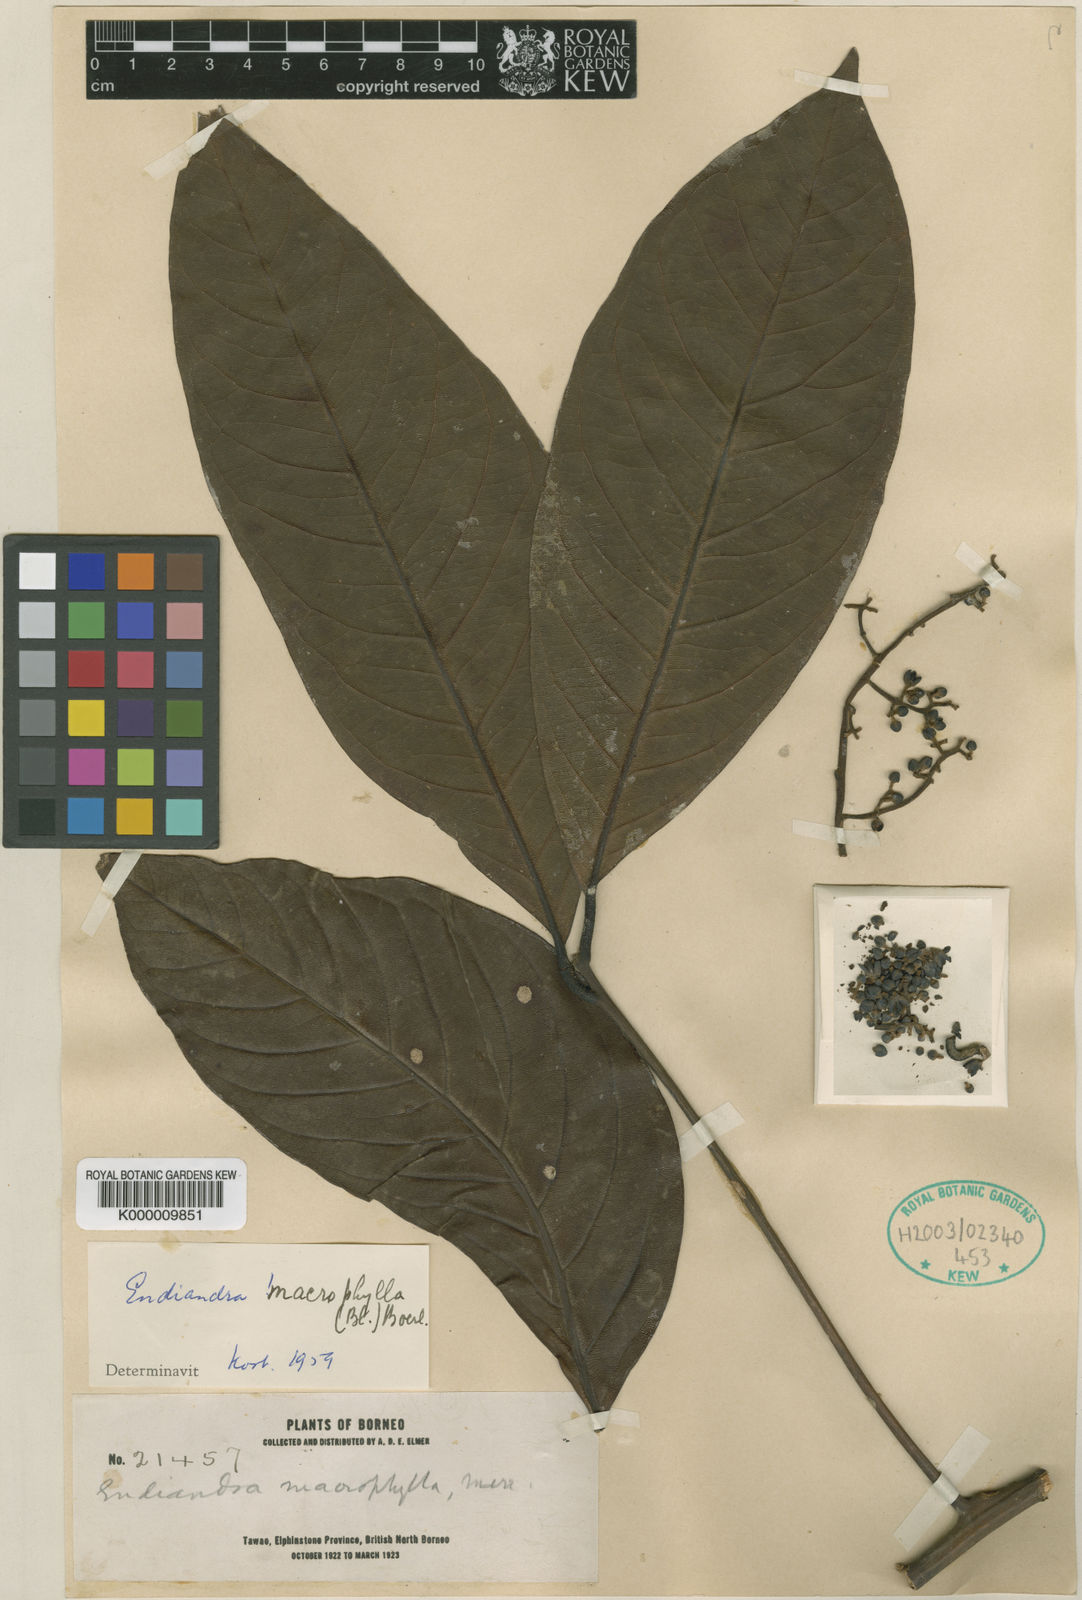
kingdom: Plantae
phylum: Tracheophyta
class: Magnoliopsida
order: Laurales
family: Lauraceae
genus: Endiandra
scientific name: Endiandra macrophylla
